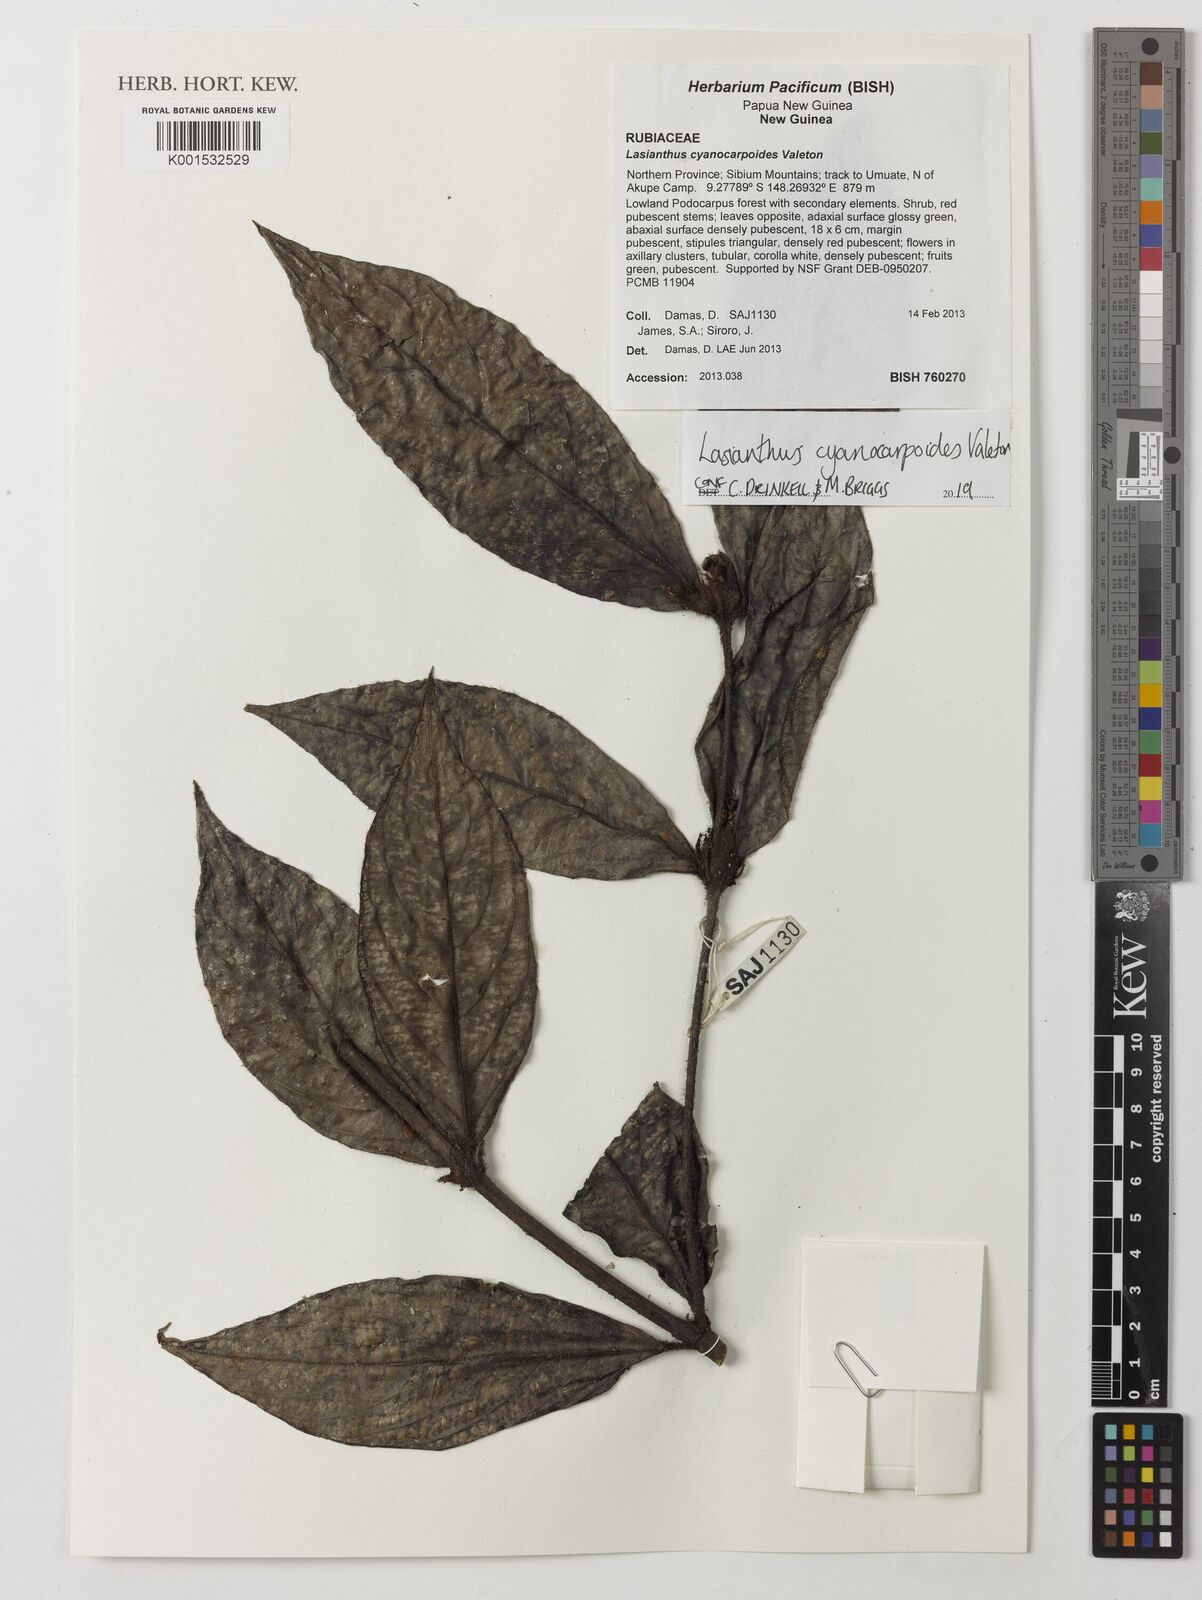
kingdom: Plantae
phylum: Tracheophyta
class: Magnoliopsida
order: Gentianales
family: Rubiaceae
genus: Lasianthus
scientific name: Lasianthus cyanocarpoides
